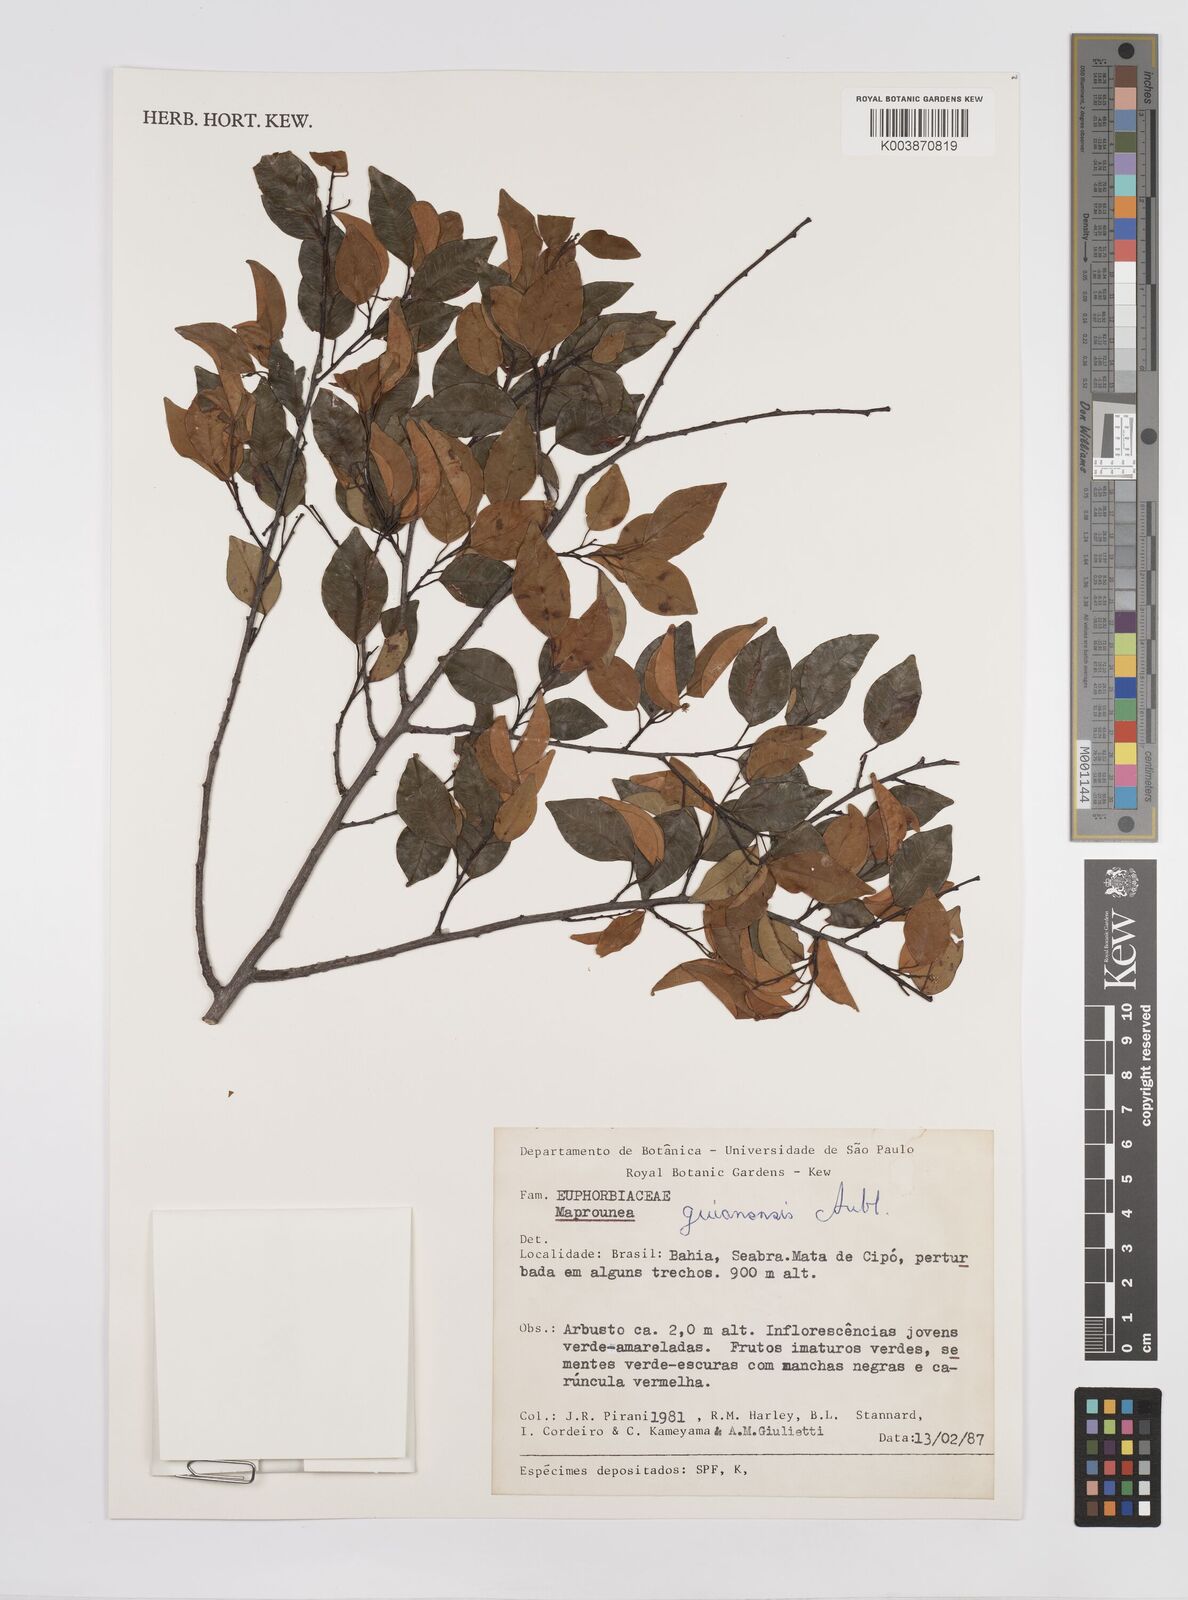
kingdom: Plantae
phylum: Tracheophyta
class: Magnoliopsida
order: Malpighiales
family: Euphorbiaceae
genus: Maprounea
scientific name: Maprounea guianensis
